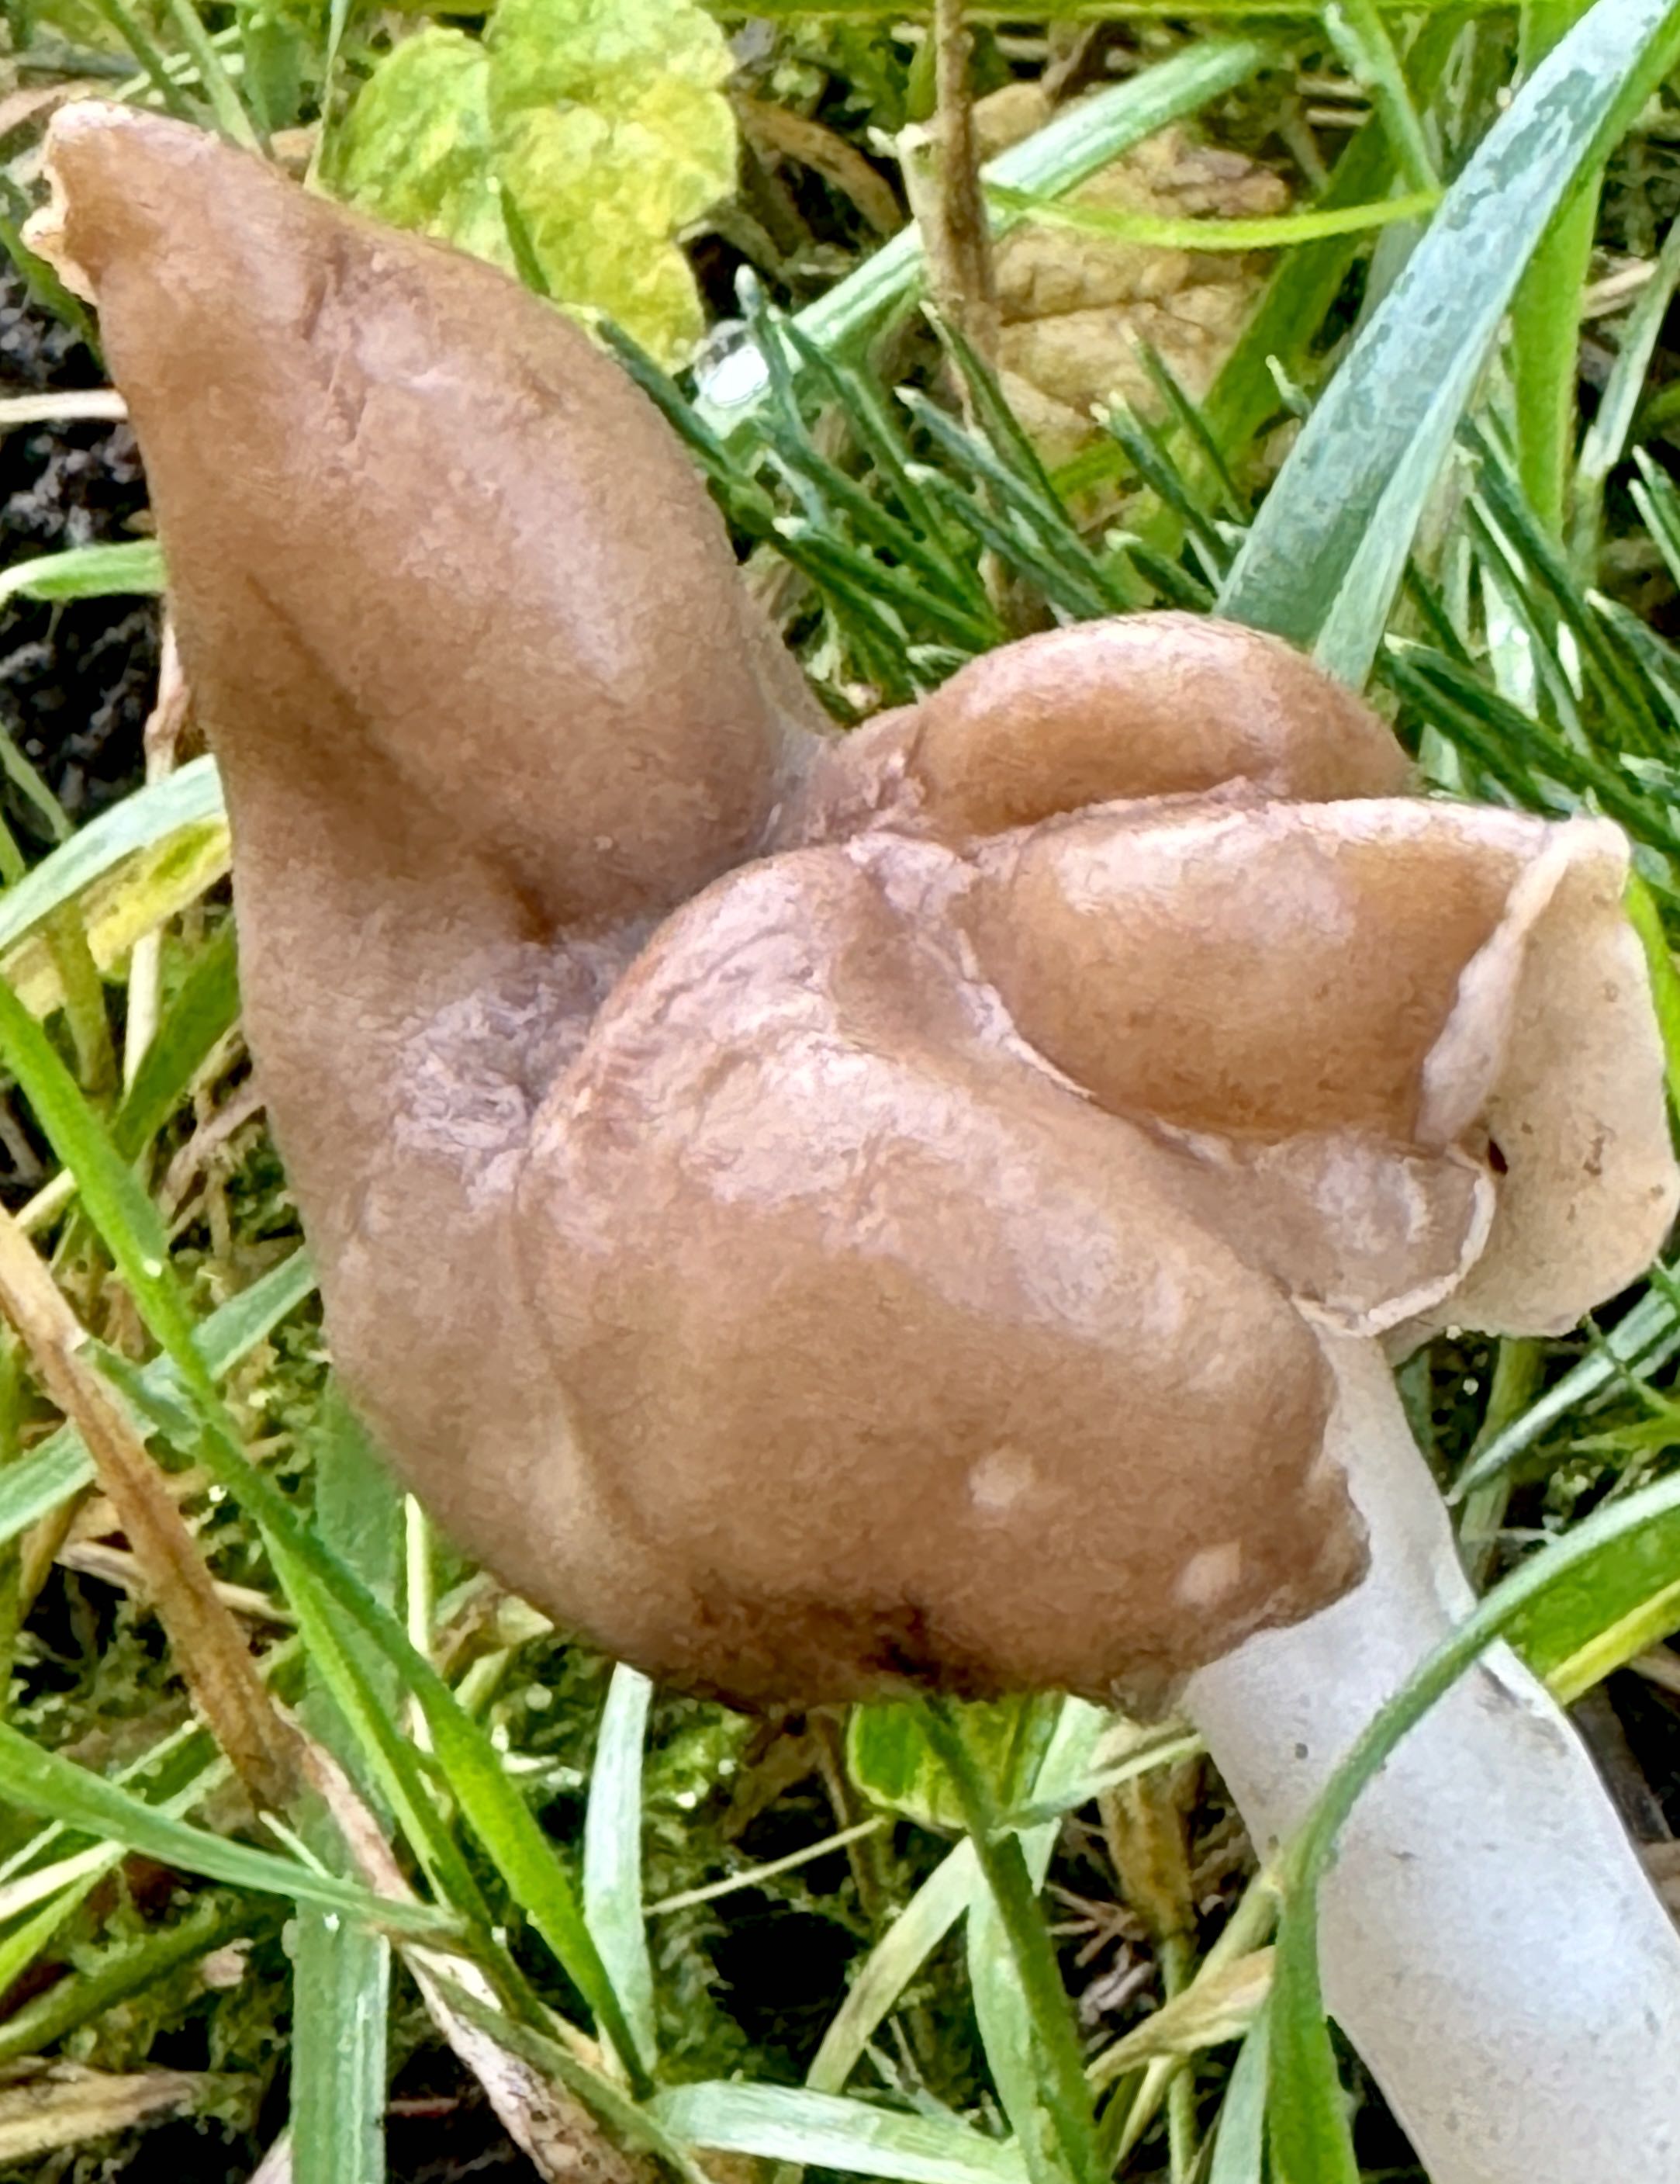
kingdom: Fungi
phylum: Ascomycota
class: Pezizomycetes
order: Pezizales
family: Helvellaceae
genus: Helvella
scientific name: Helvella elastica
